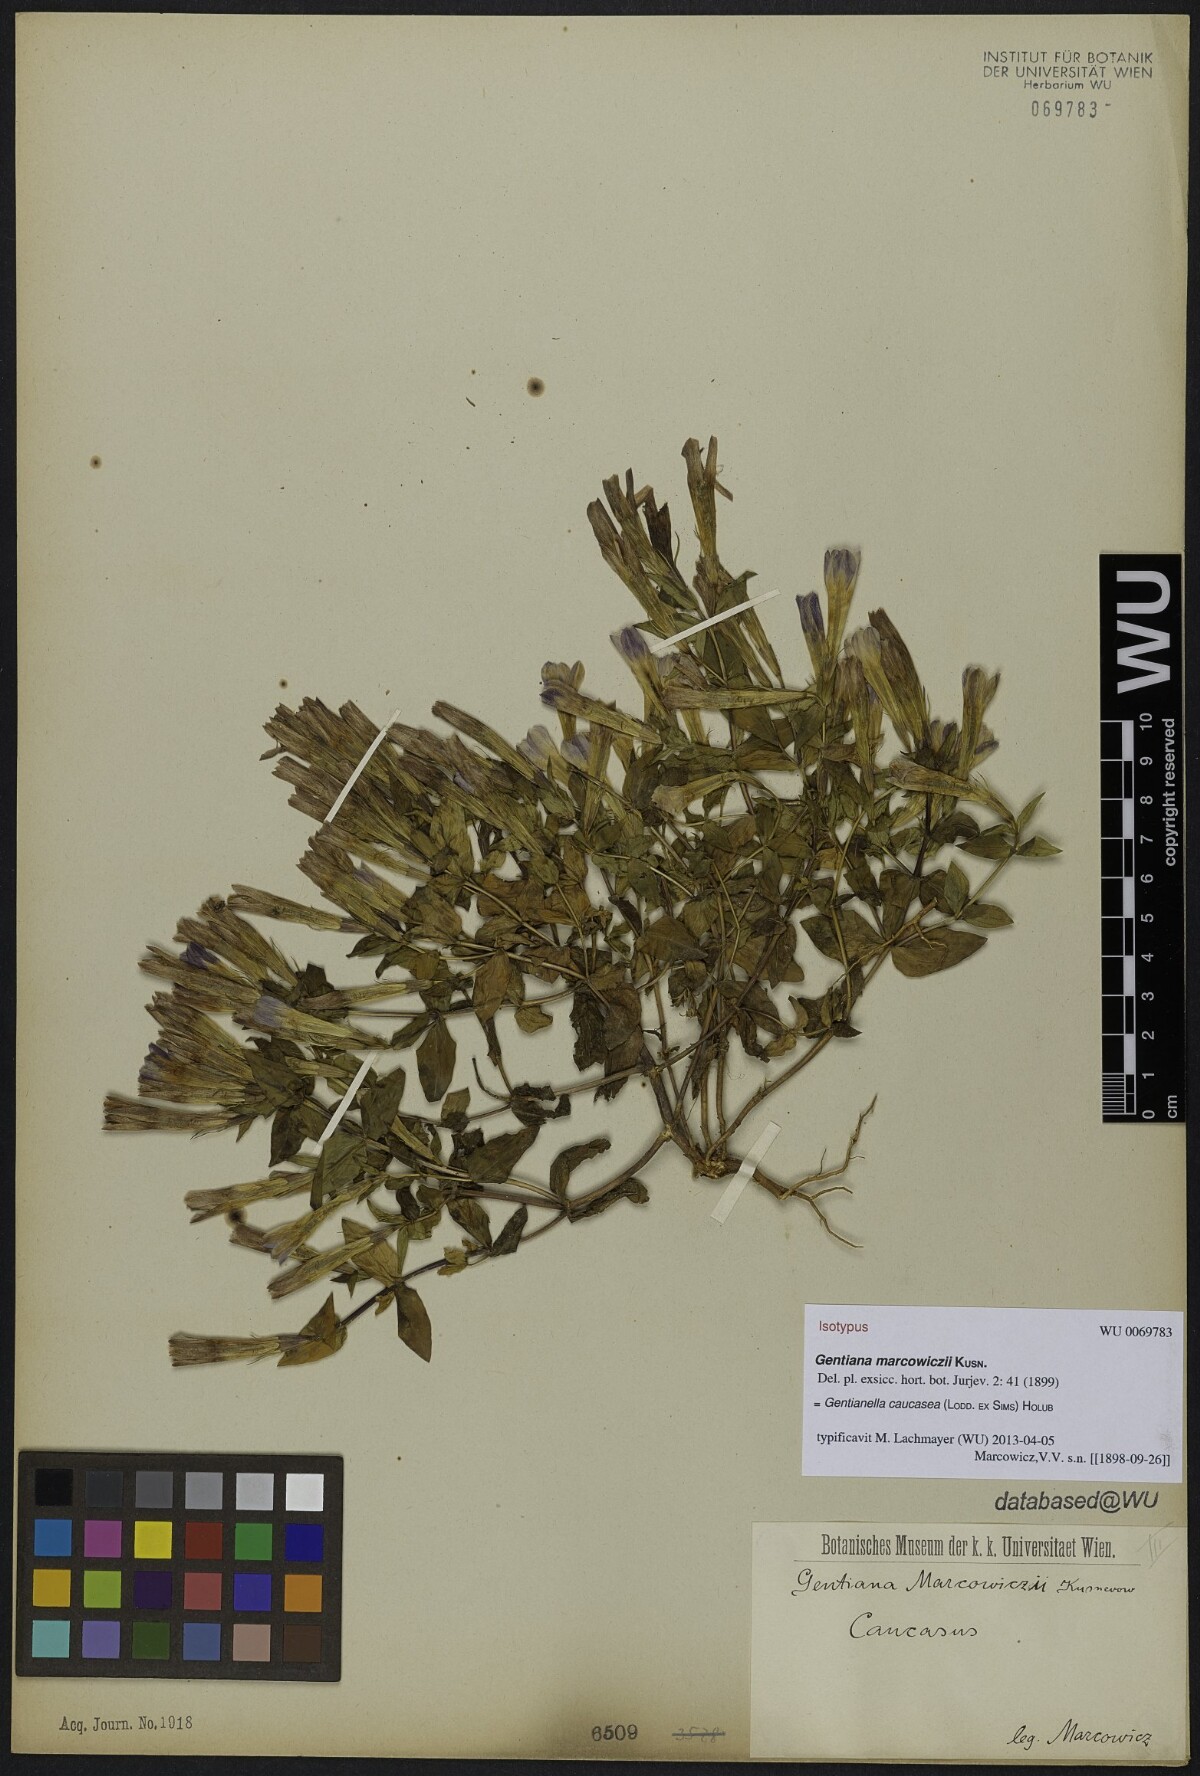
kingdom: Plantae
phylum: Tracheophyta
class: Magnoliopsida
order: Gentianales
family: Gentianaceae
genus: Gentianella
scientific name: Gentianella caucasea
